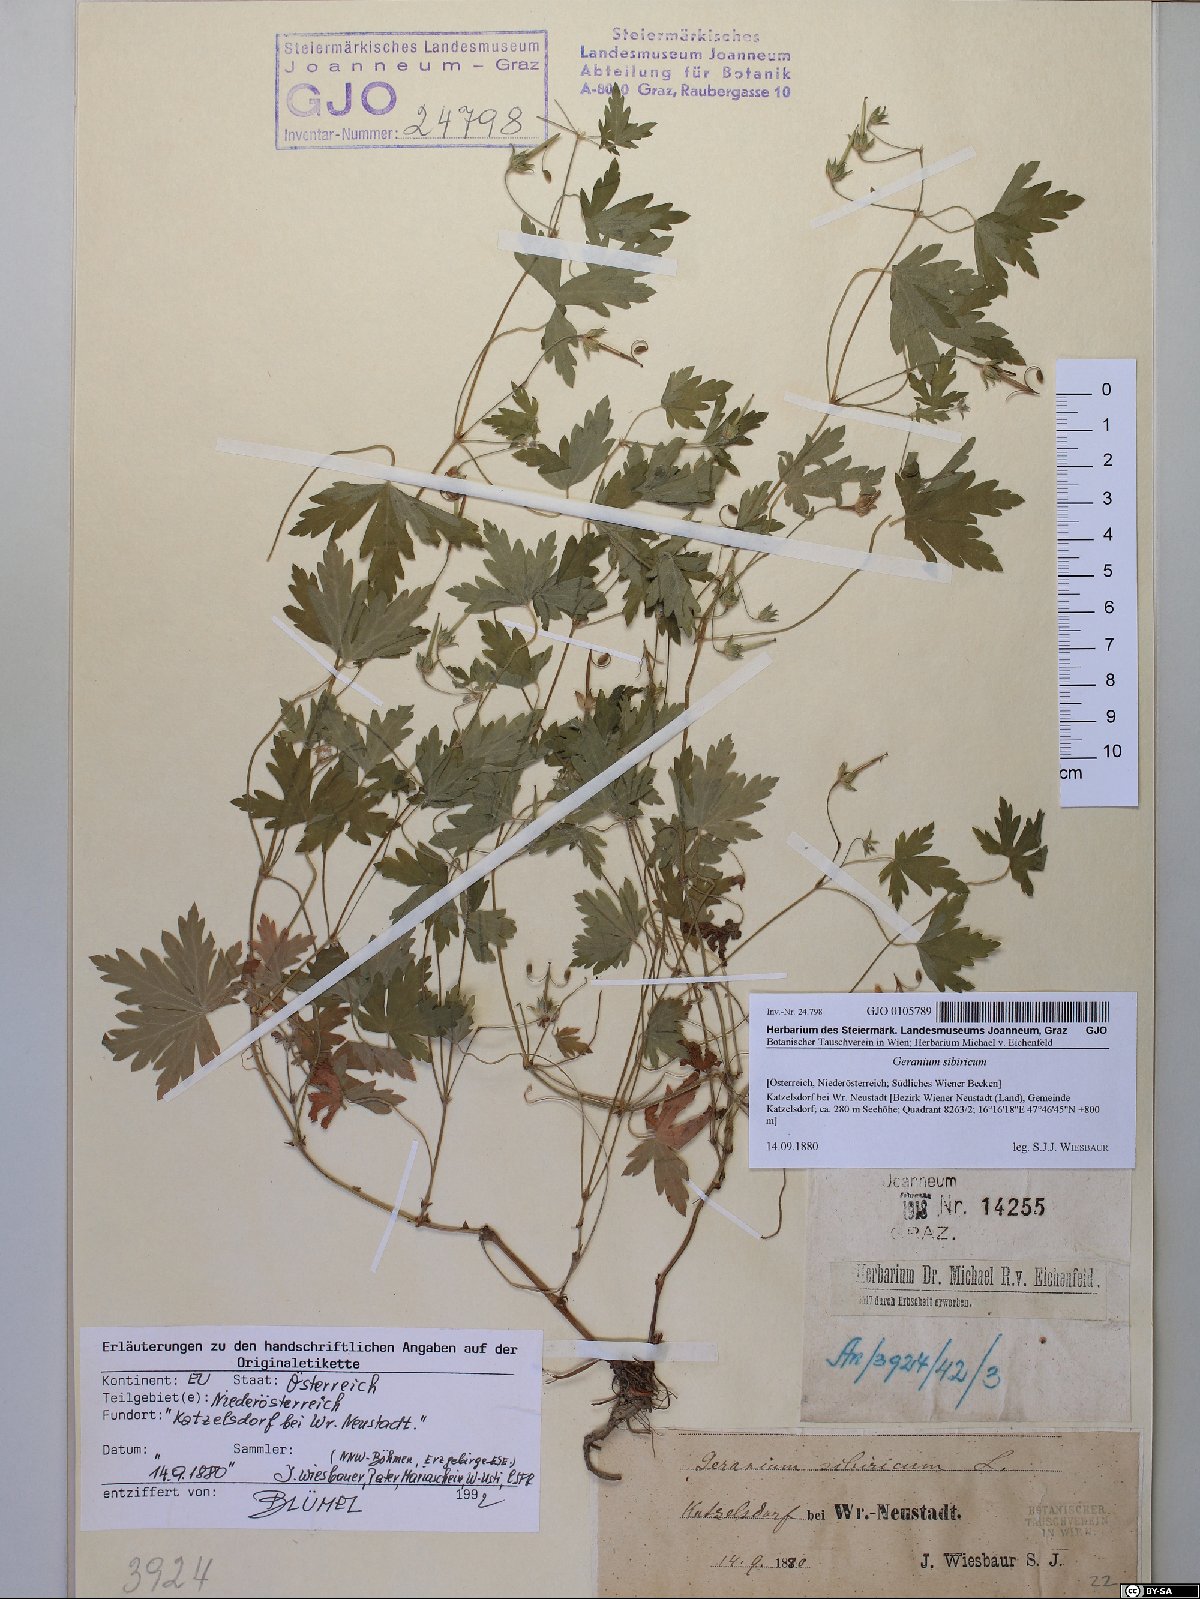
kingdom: Plantae
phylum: Tracheophyta
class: Magnoliopsida
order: Geraniales
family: Geraniaceae
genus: Geranium
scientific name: Geranium sibiricum
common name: Siberian crane's-bill
